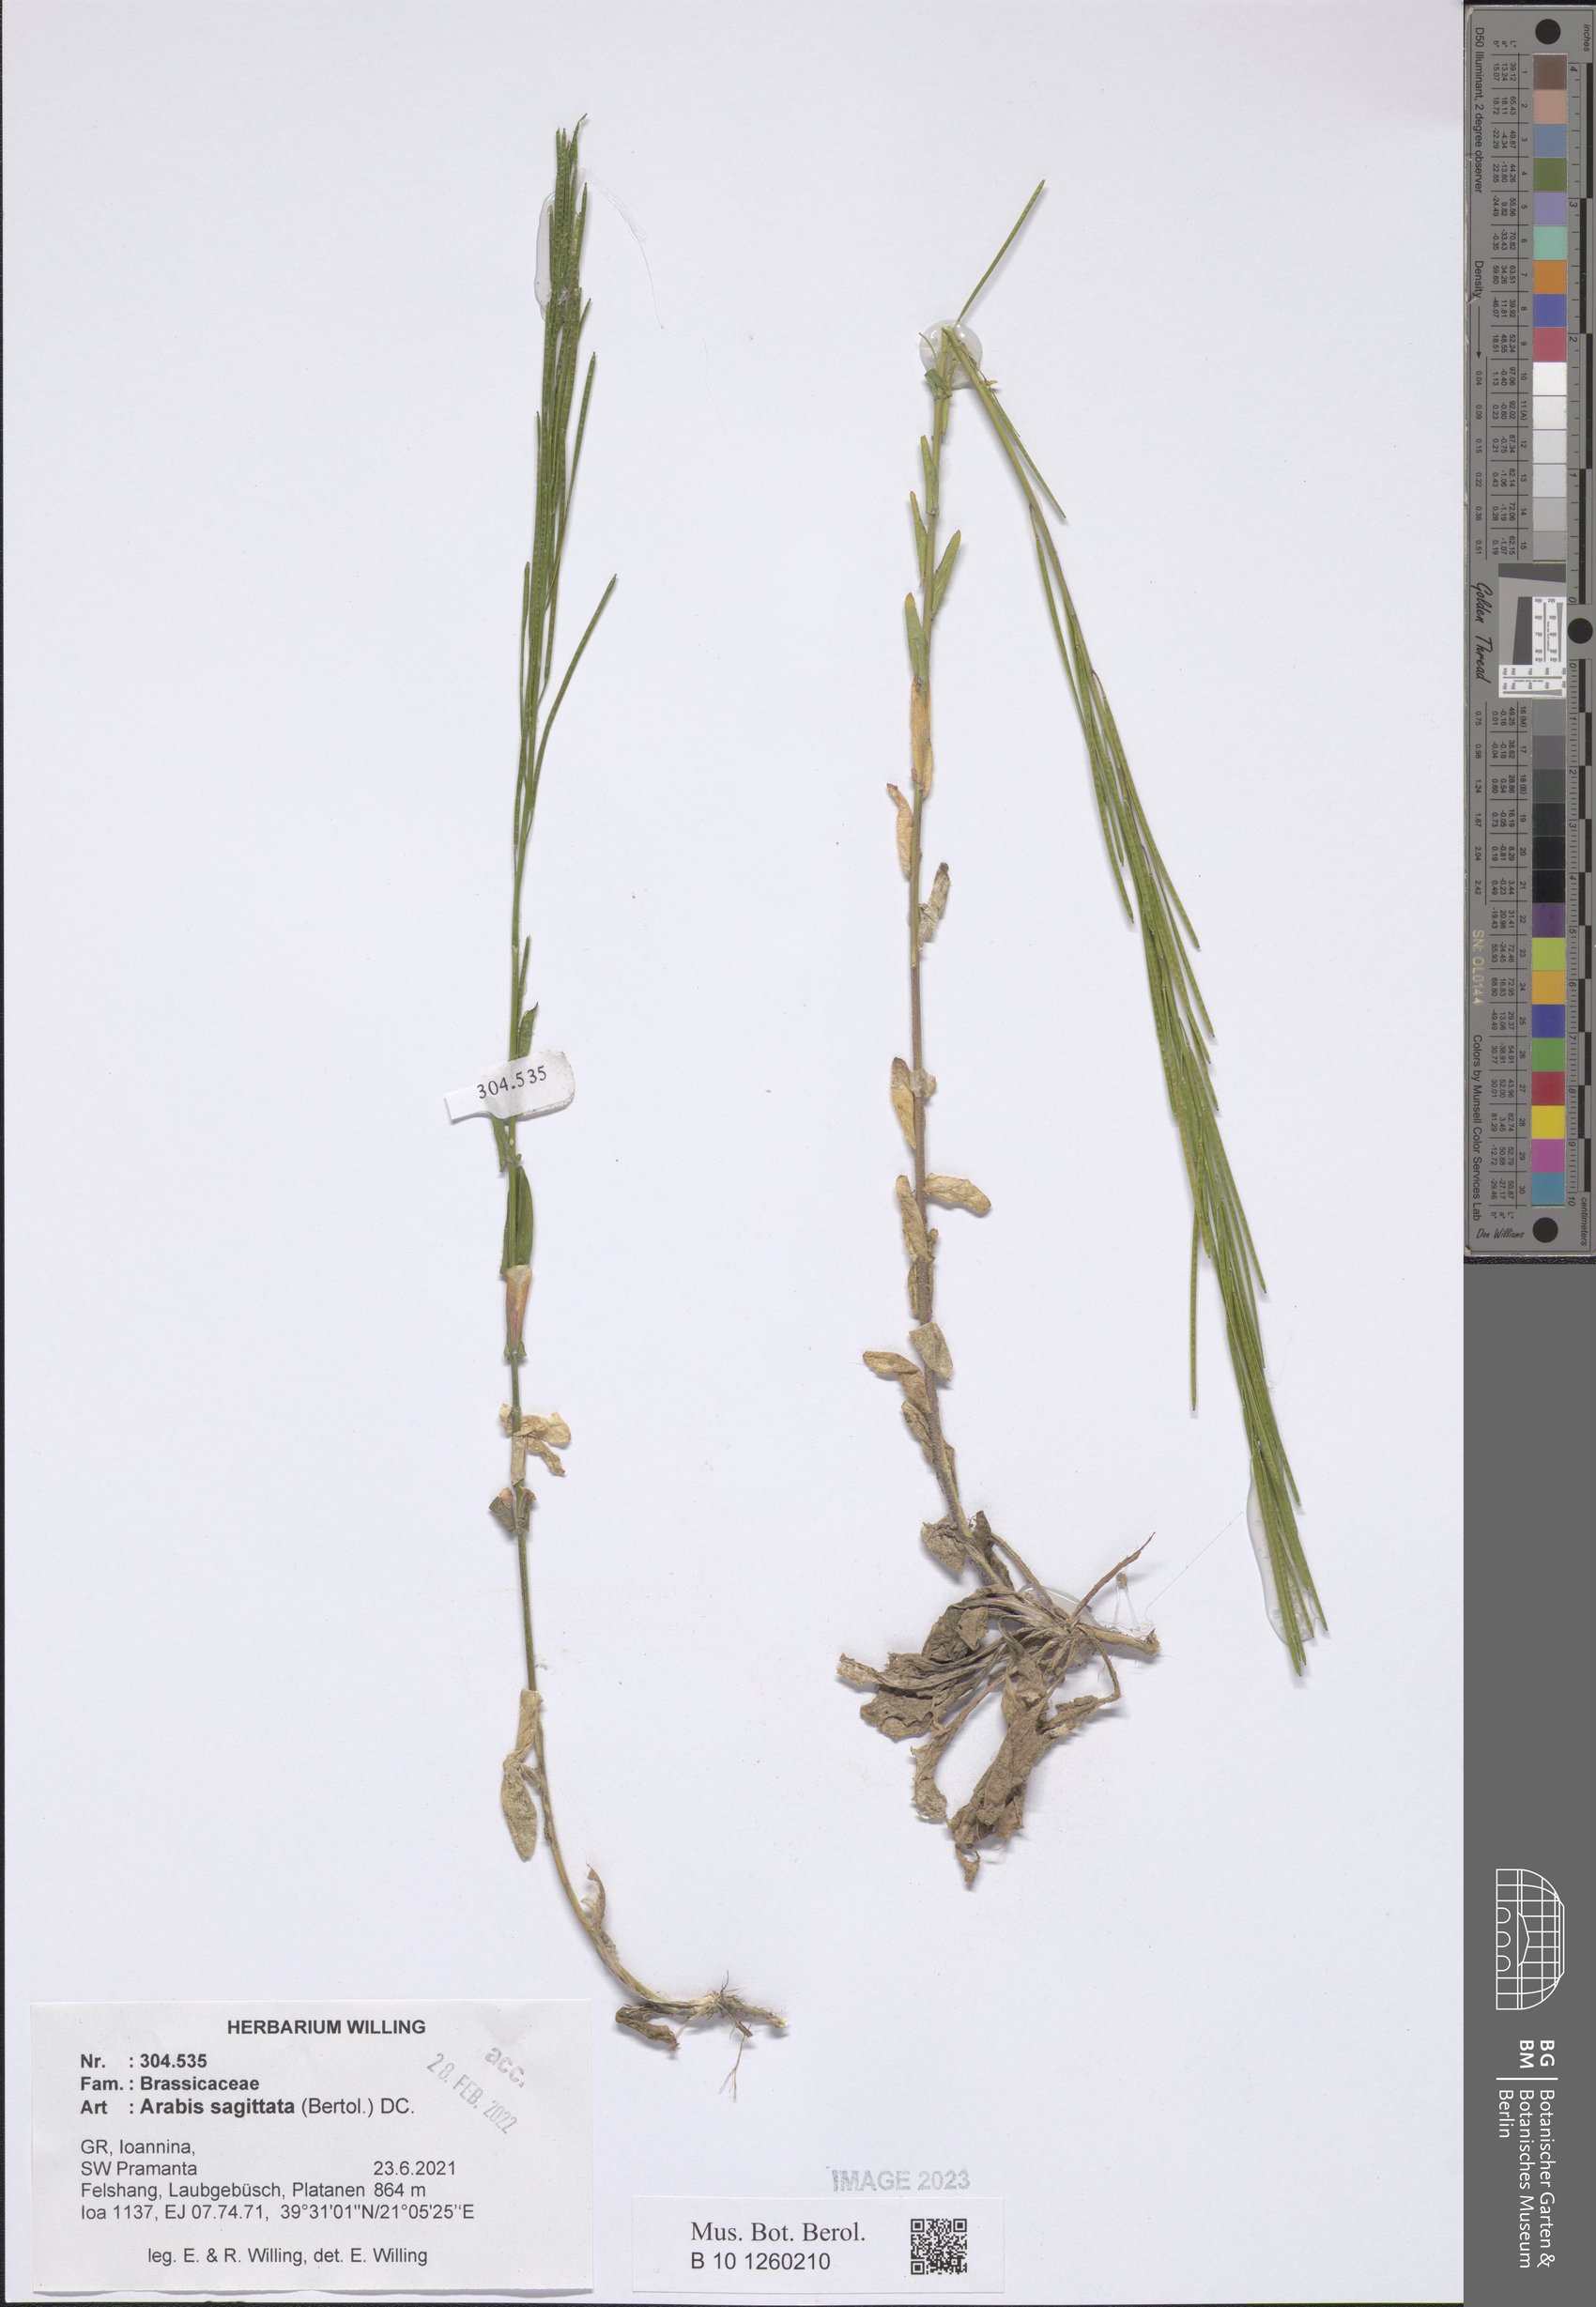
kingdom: Plantae
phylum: Tracheophyta
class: Magnoliopsida
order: Brassicales
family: Brassicaceae
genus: Arabis
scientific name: Arabis sagittata
